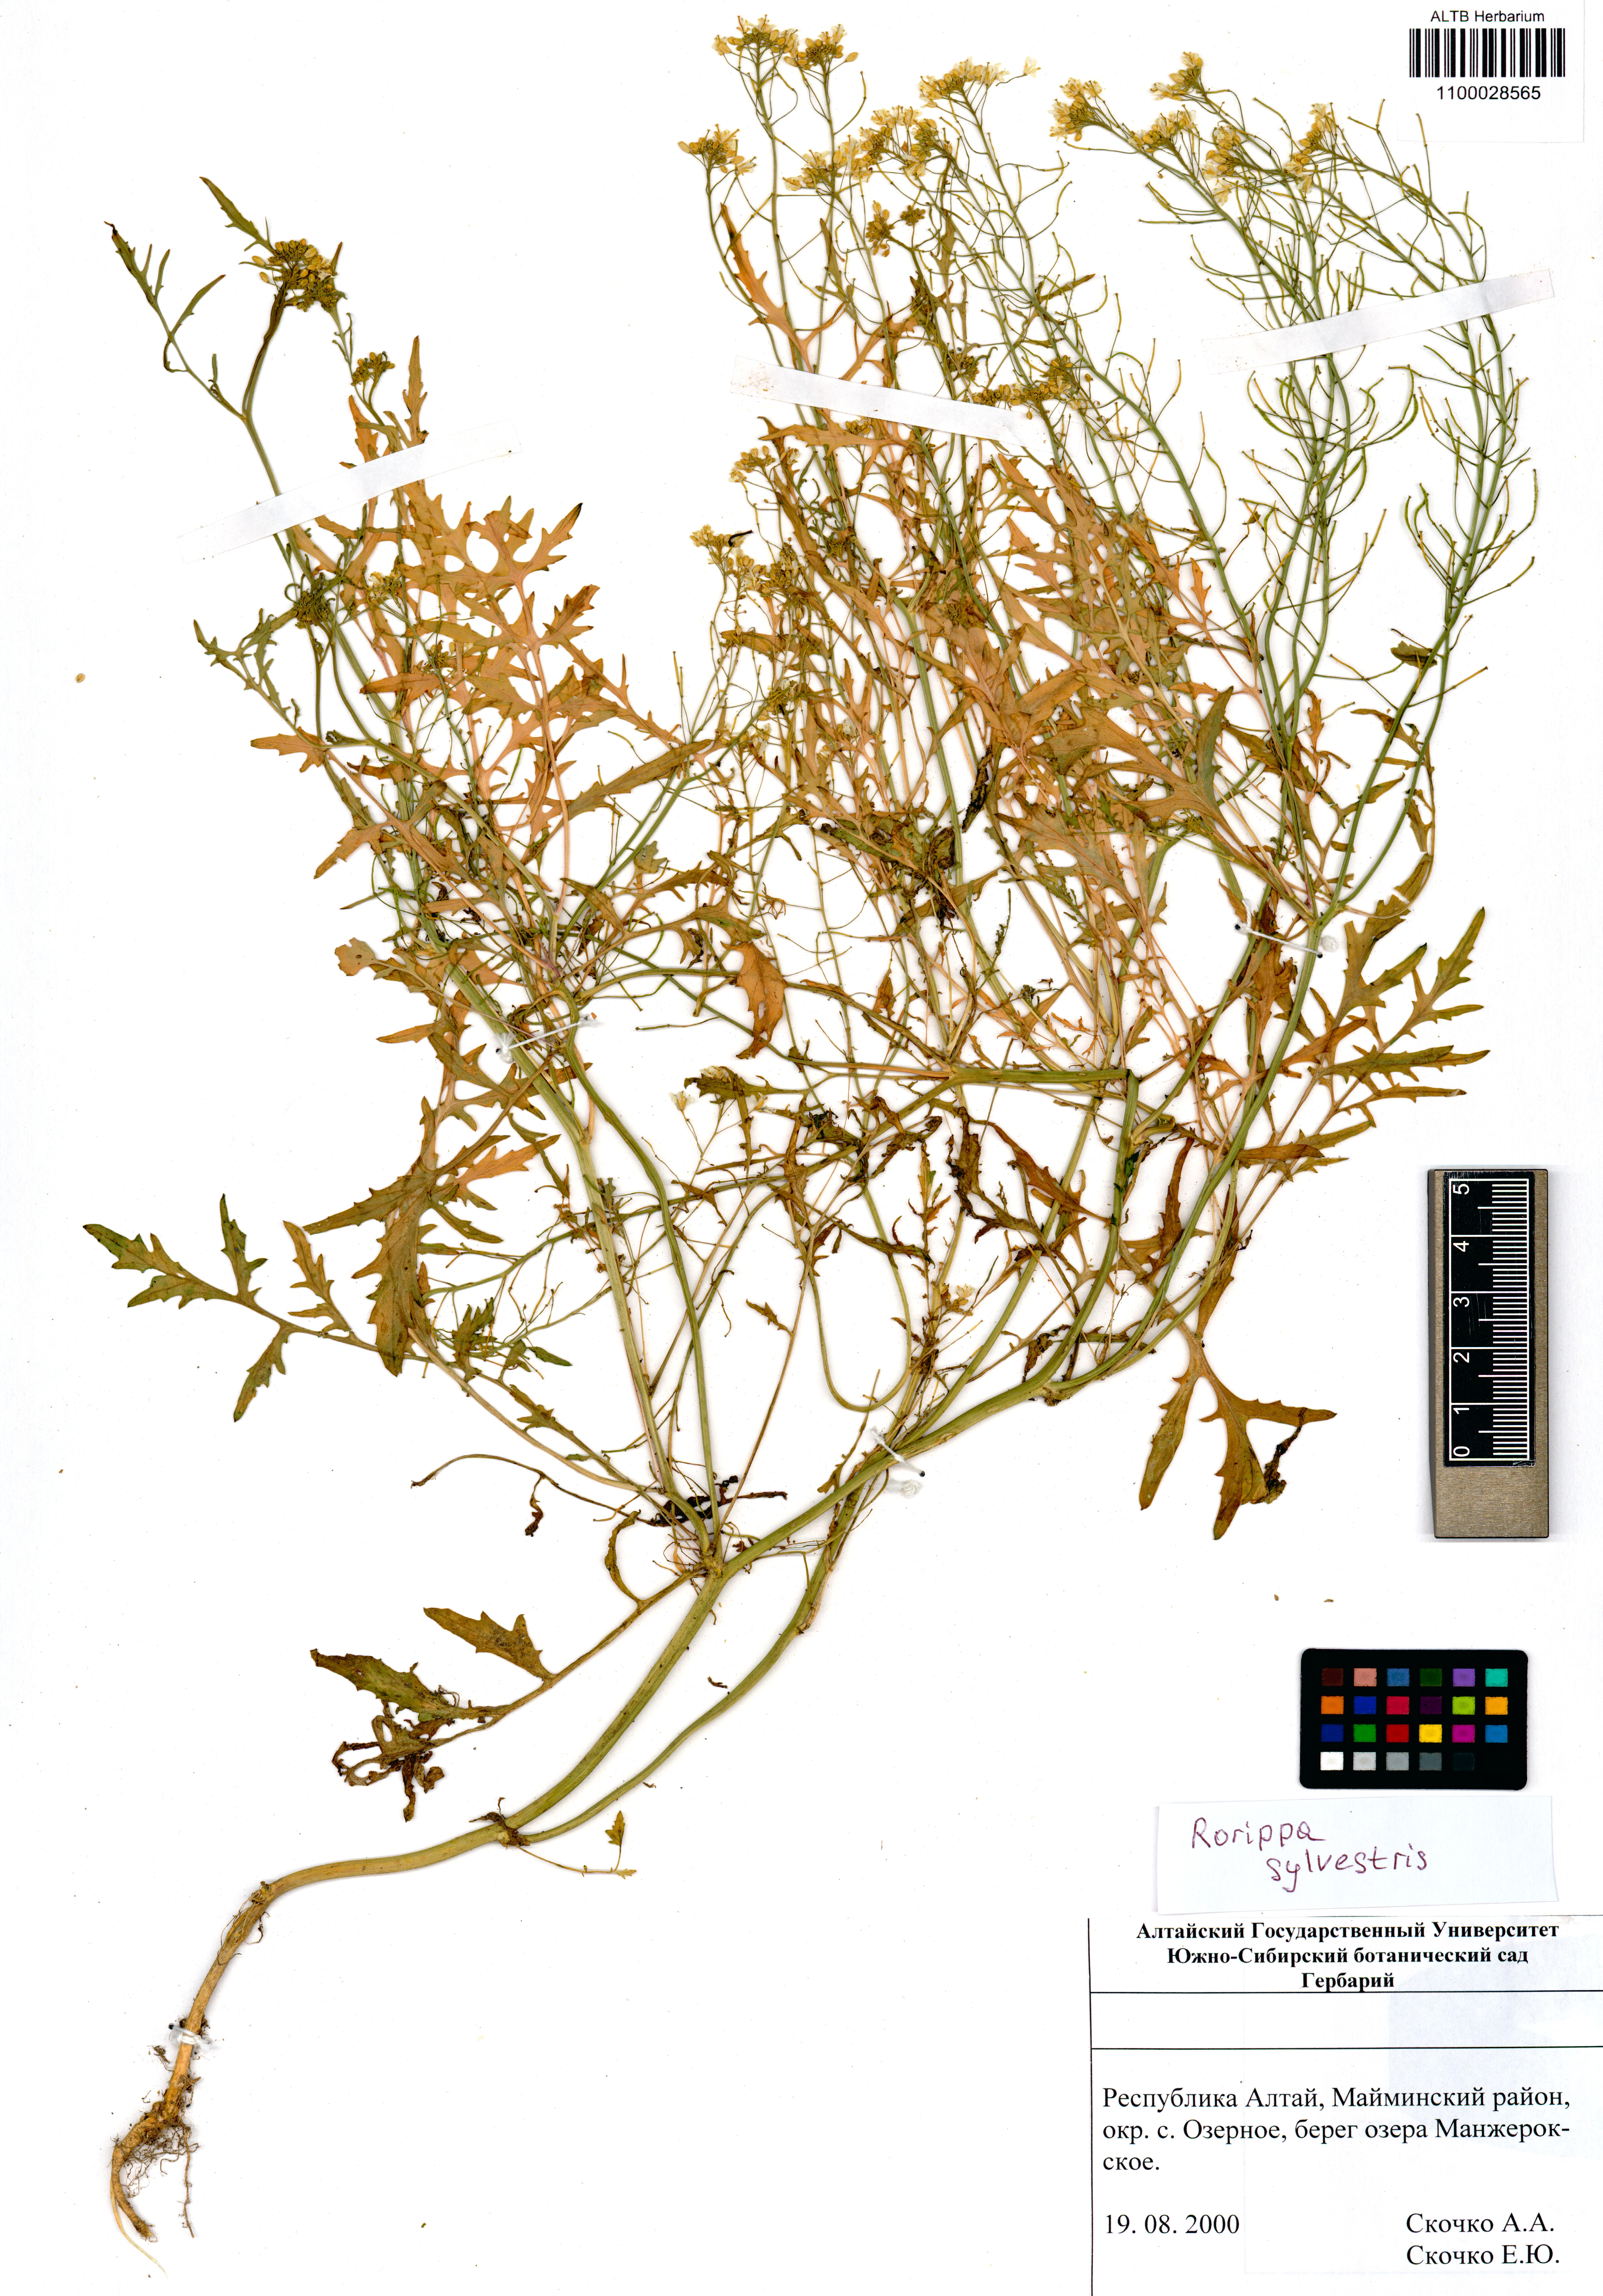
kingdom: Plantae
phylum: Tracheophyta
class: Magnoliopsida
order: Brassicales
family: Brassicaceae
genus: Rorippa
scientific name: Rorippa sylvestris
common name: Creeping yellowcress
